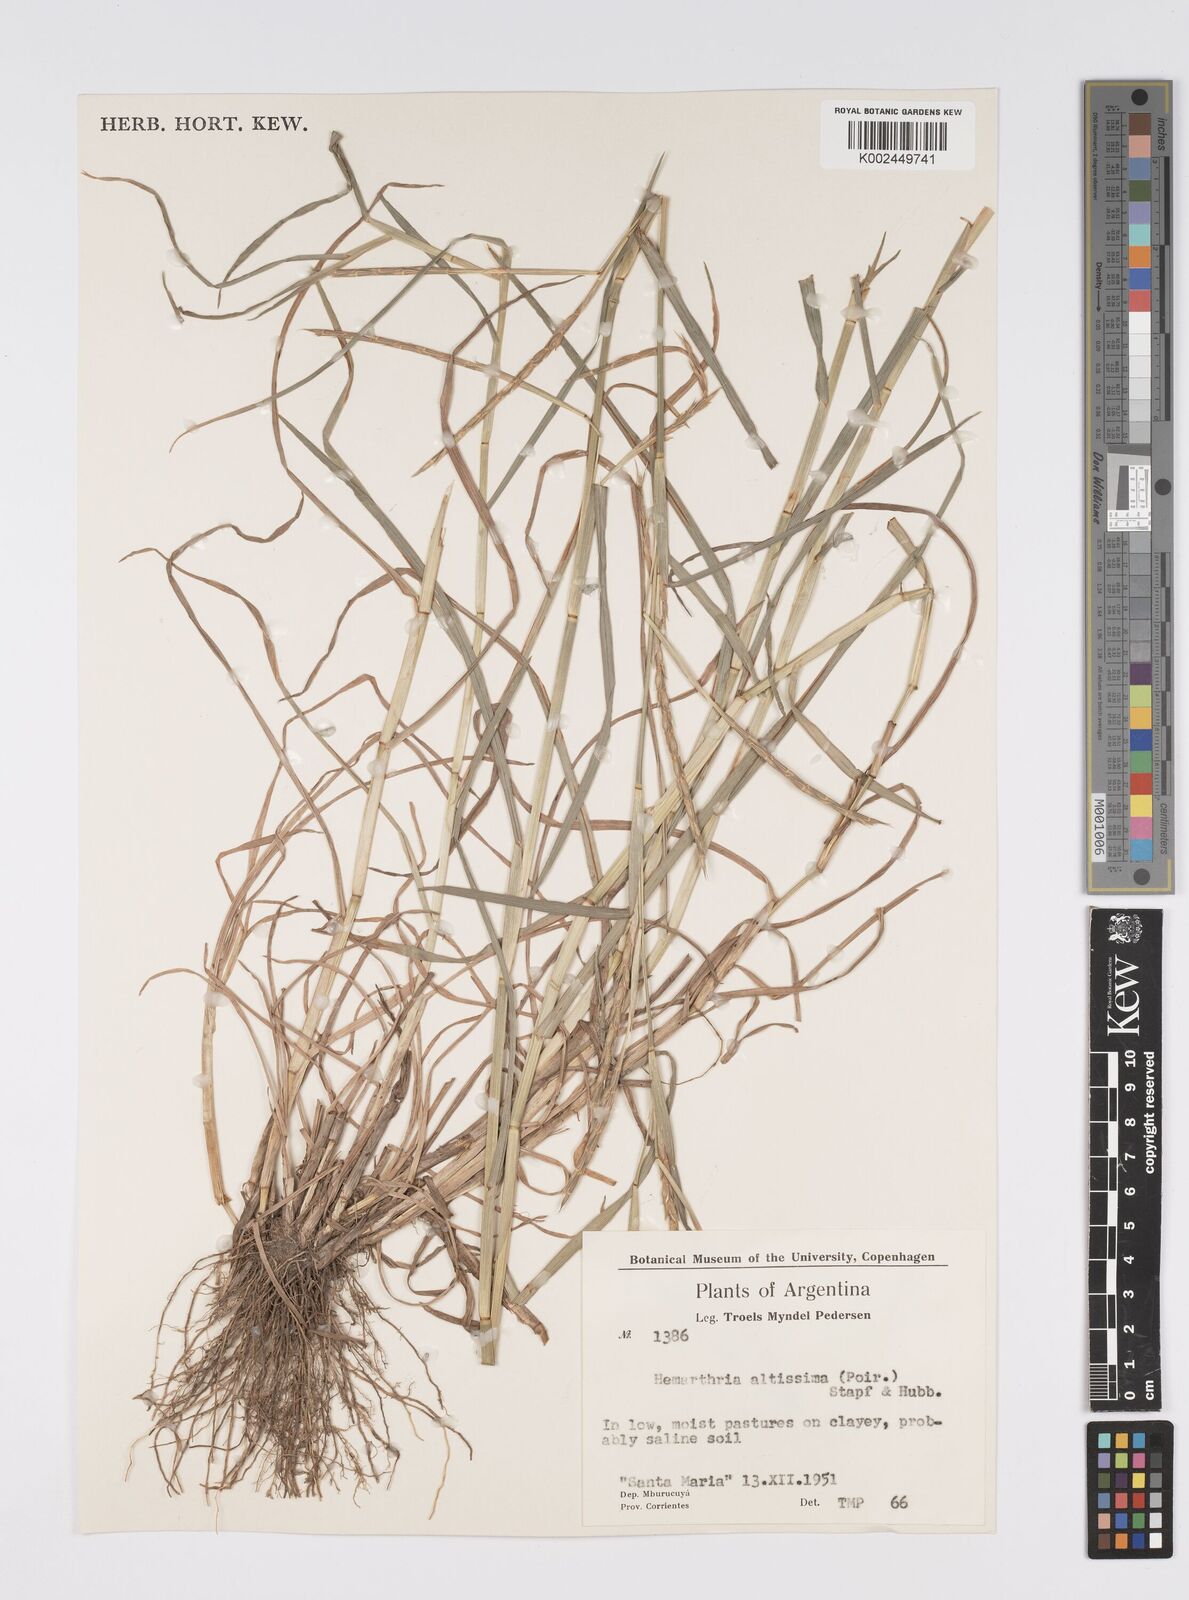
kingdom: Plantae
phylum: Tracheophyta
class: Liliopsida
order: Poales
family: Poaceae
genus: Hemarthria
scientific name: Hemarthria altissima
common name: African jointgrass
